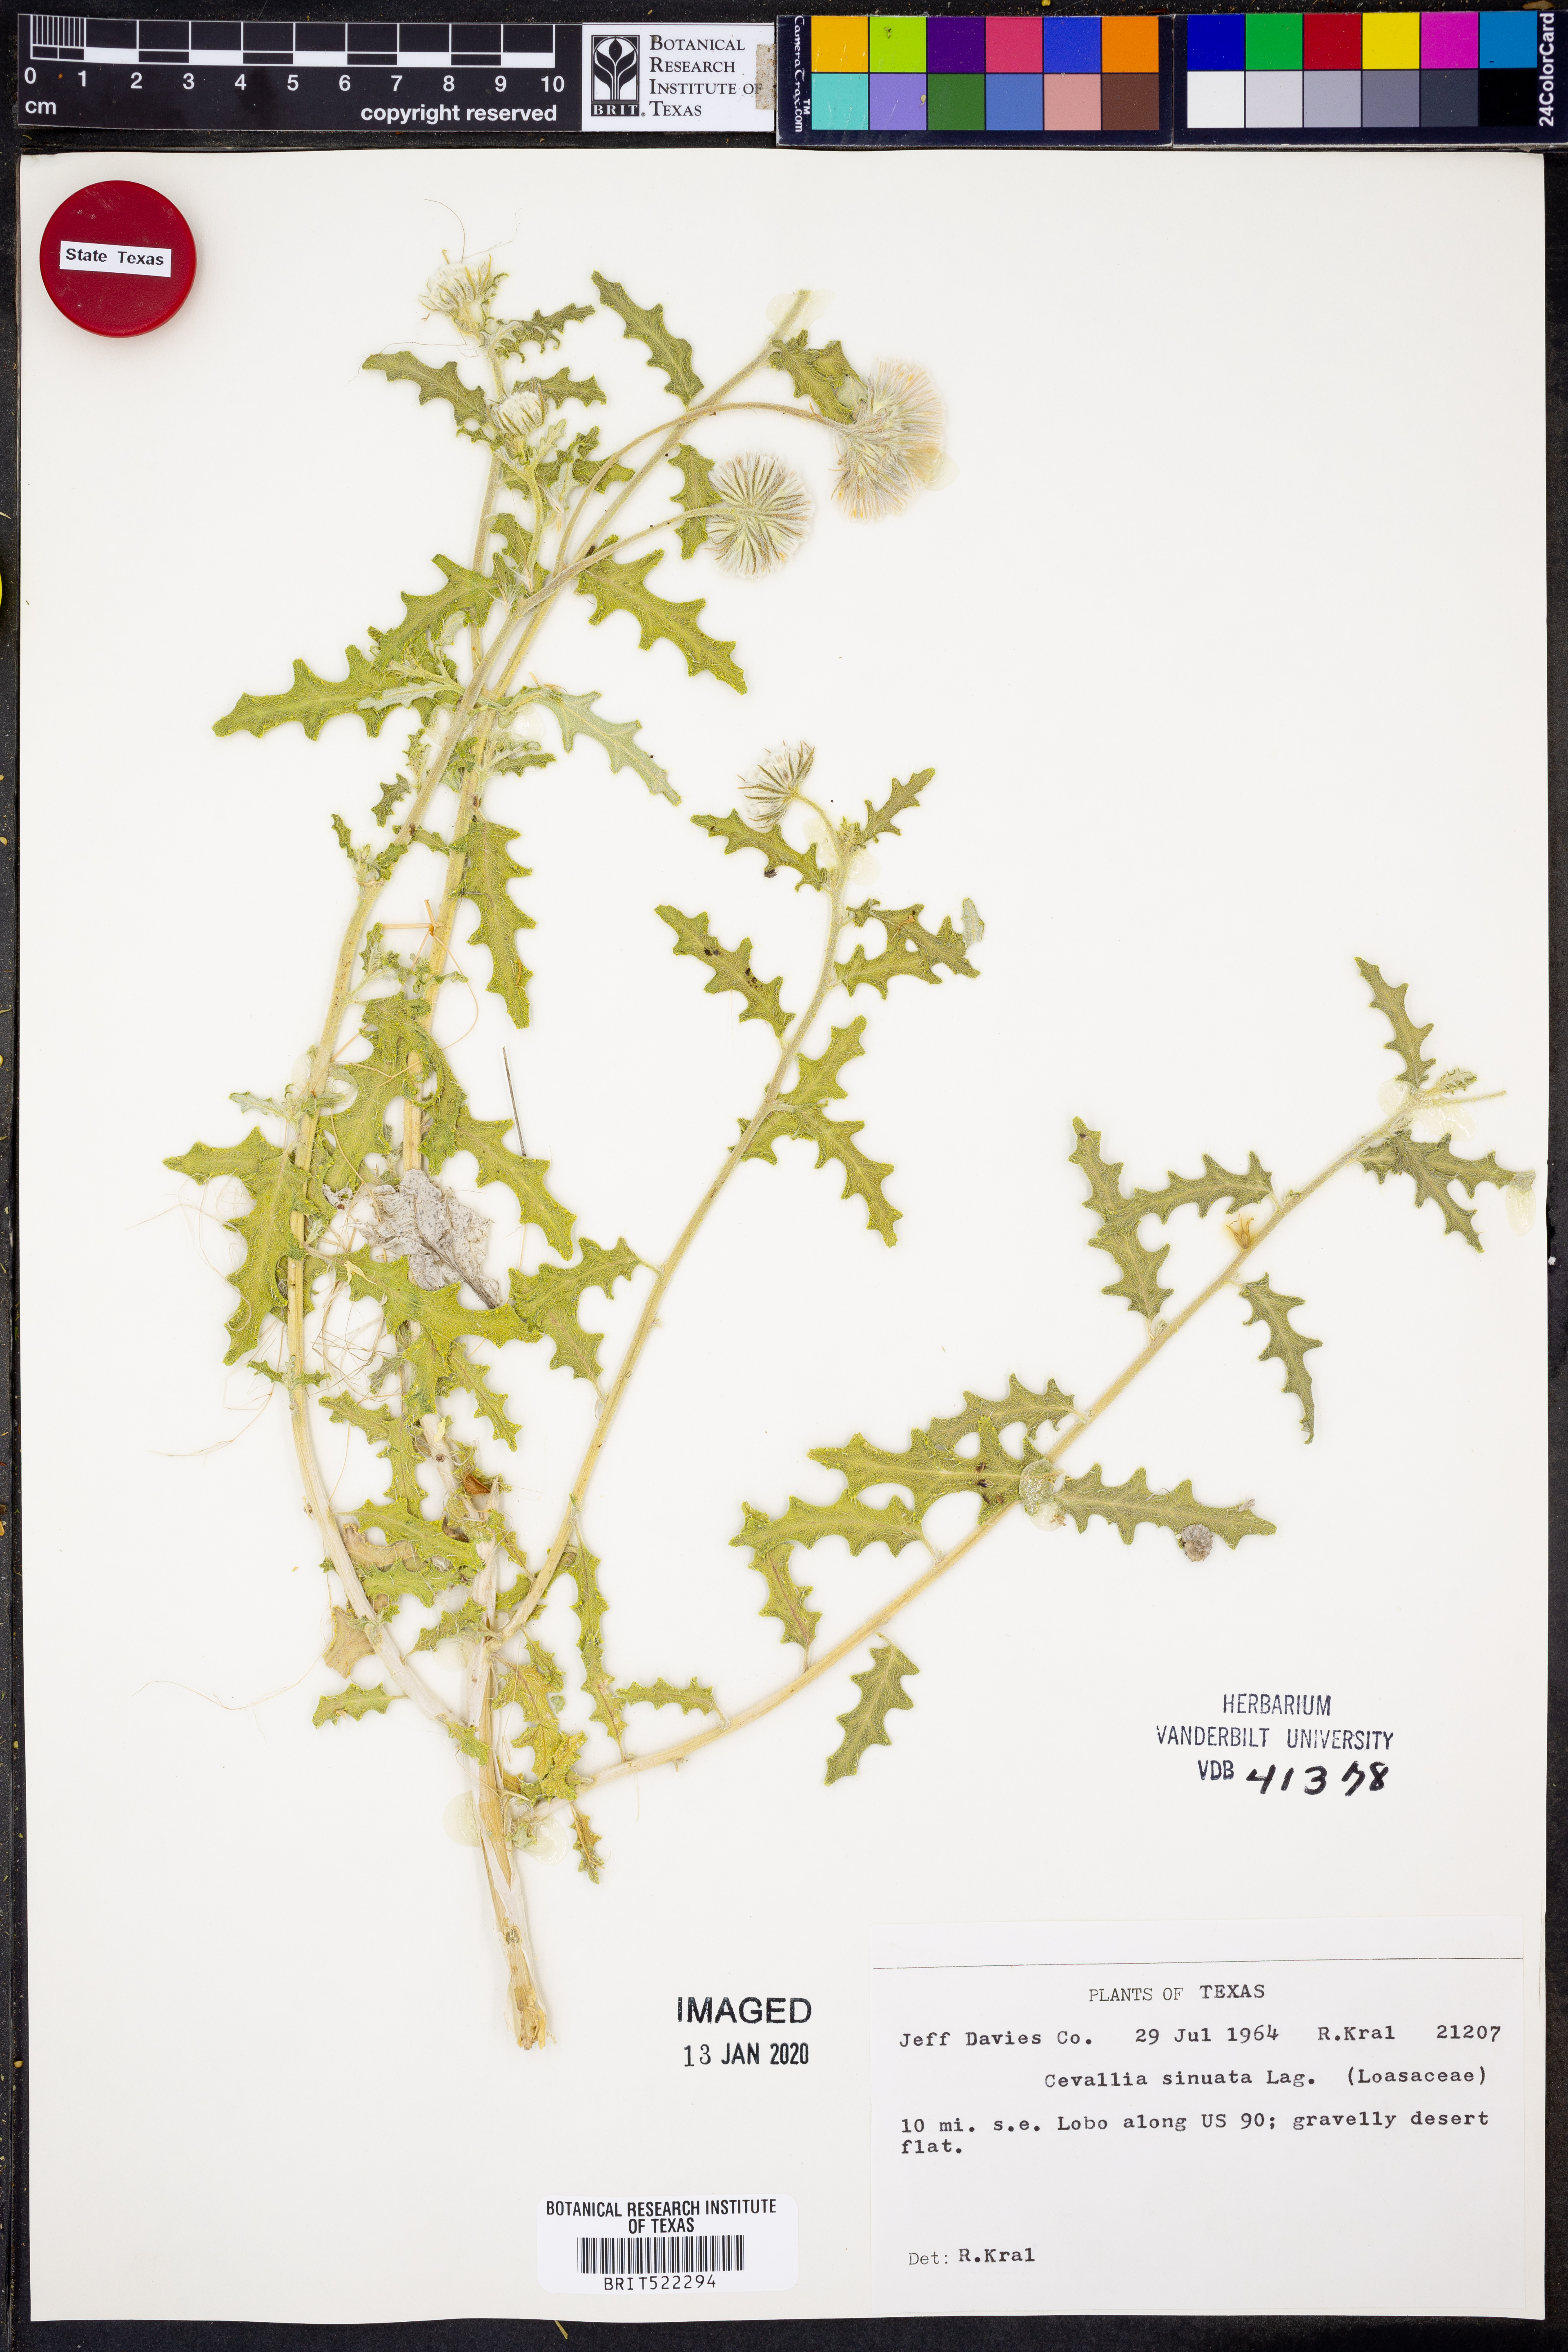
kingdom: Plantae
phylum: Tracheophyta
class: Magnoliopsida
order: Cornales
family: Loasaceae
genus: Cevallia
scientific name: Cevallia sinuata
